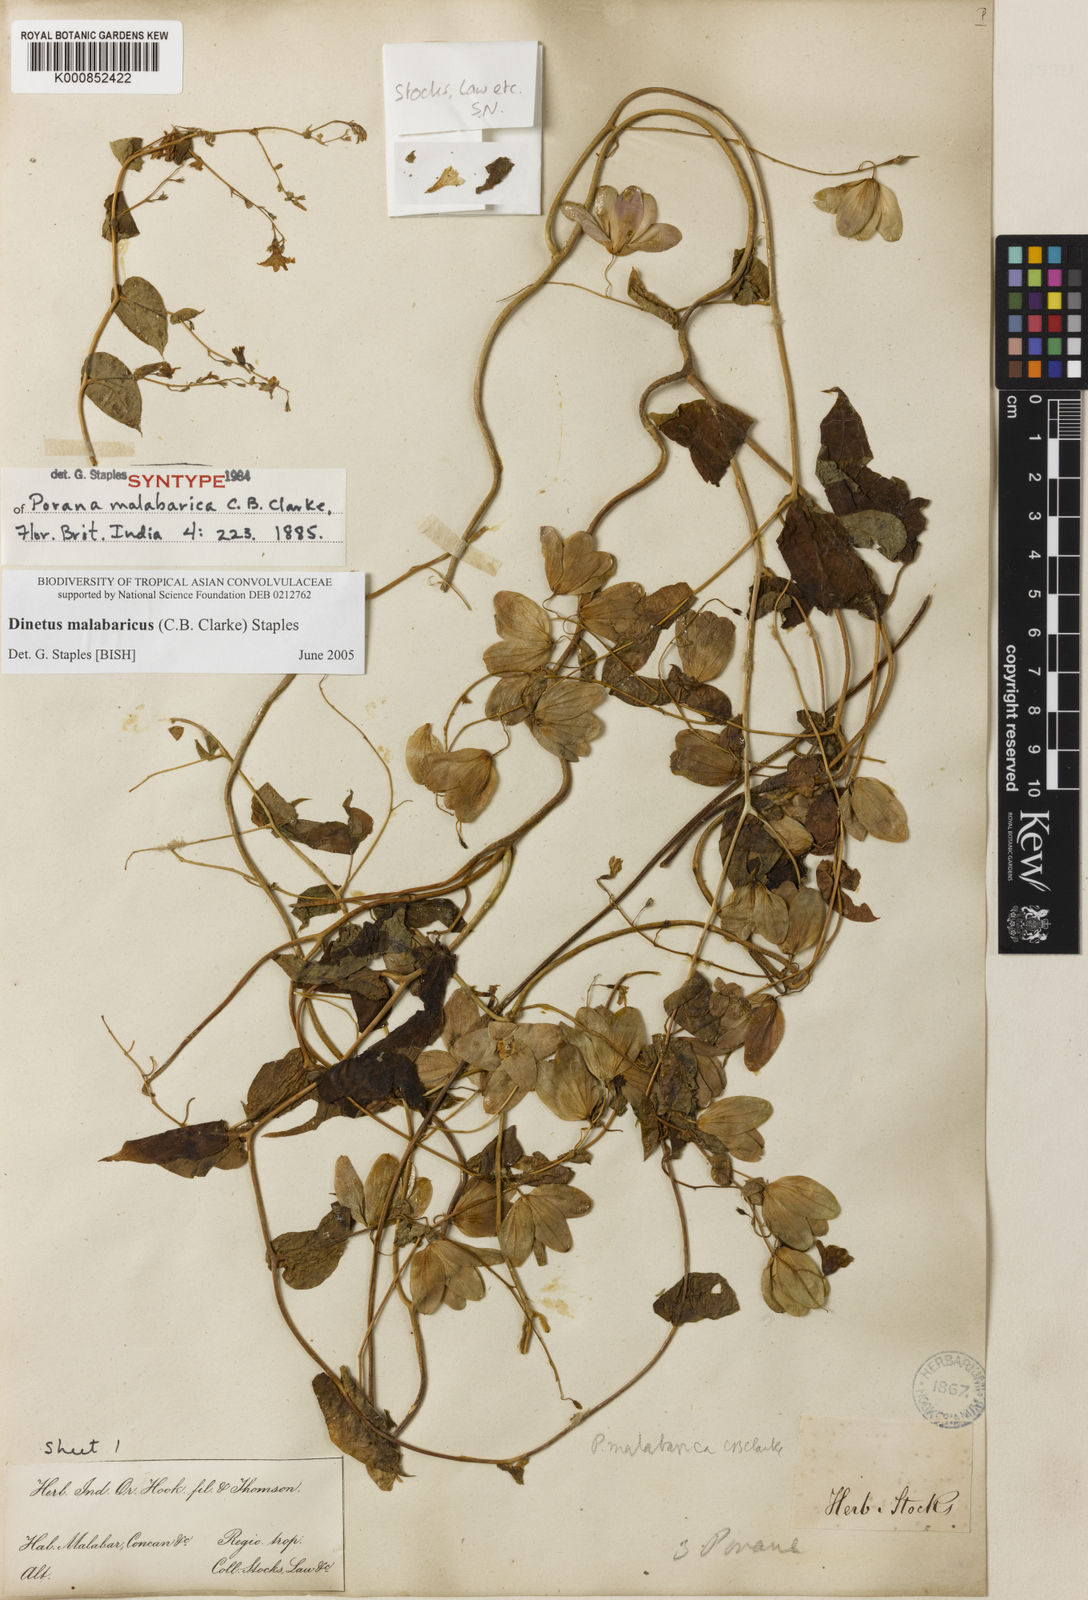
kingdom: Plantae
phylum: Tracheophyta
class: Magnoliopsida
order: Solanales
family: Convolvulaceae
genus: Dinetus
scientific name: Dinetus malabaricus
